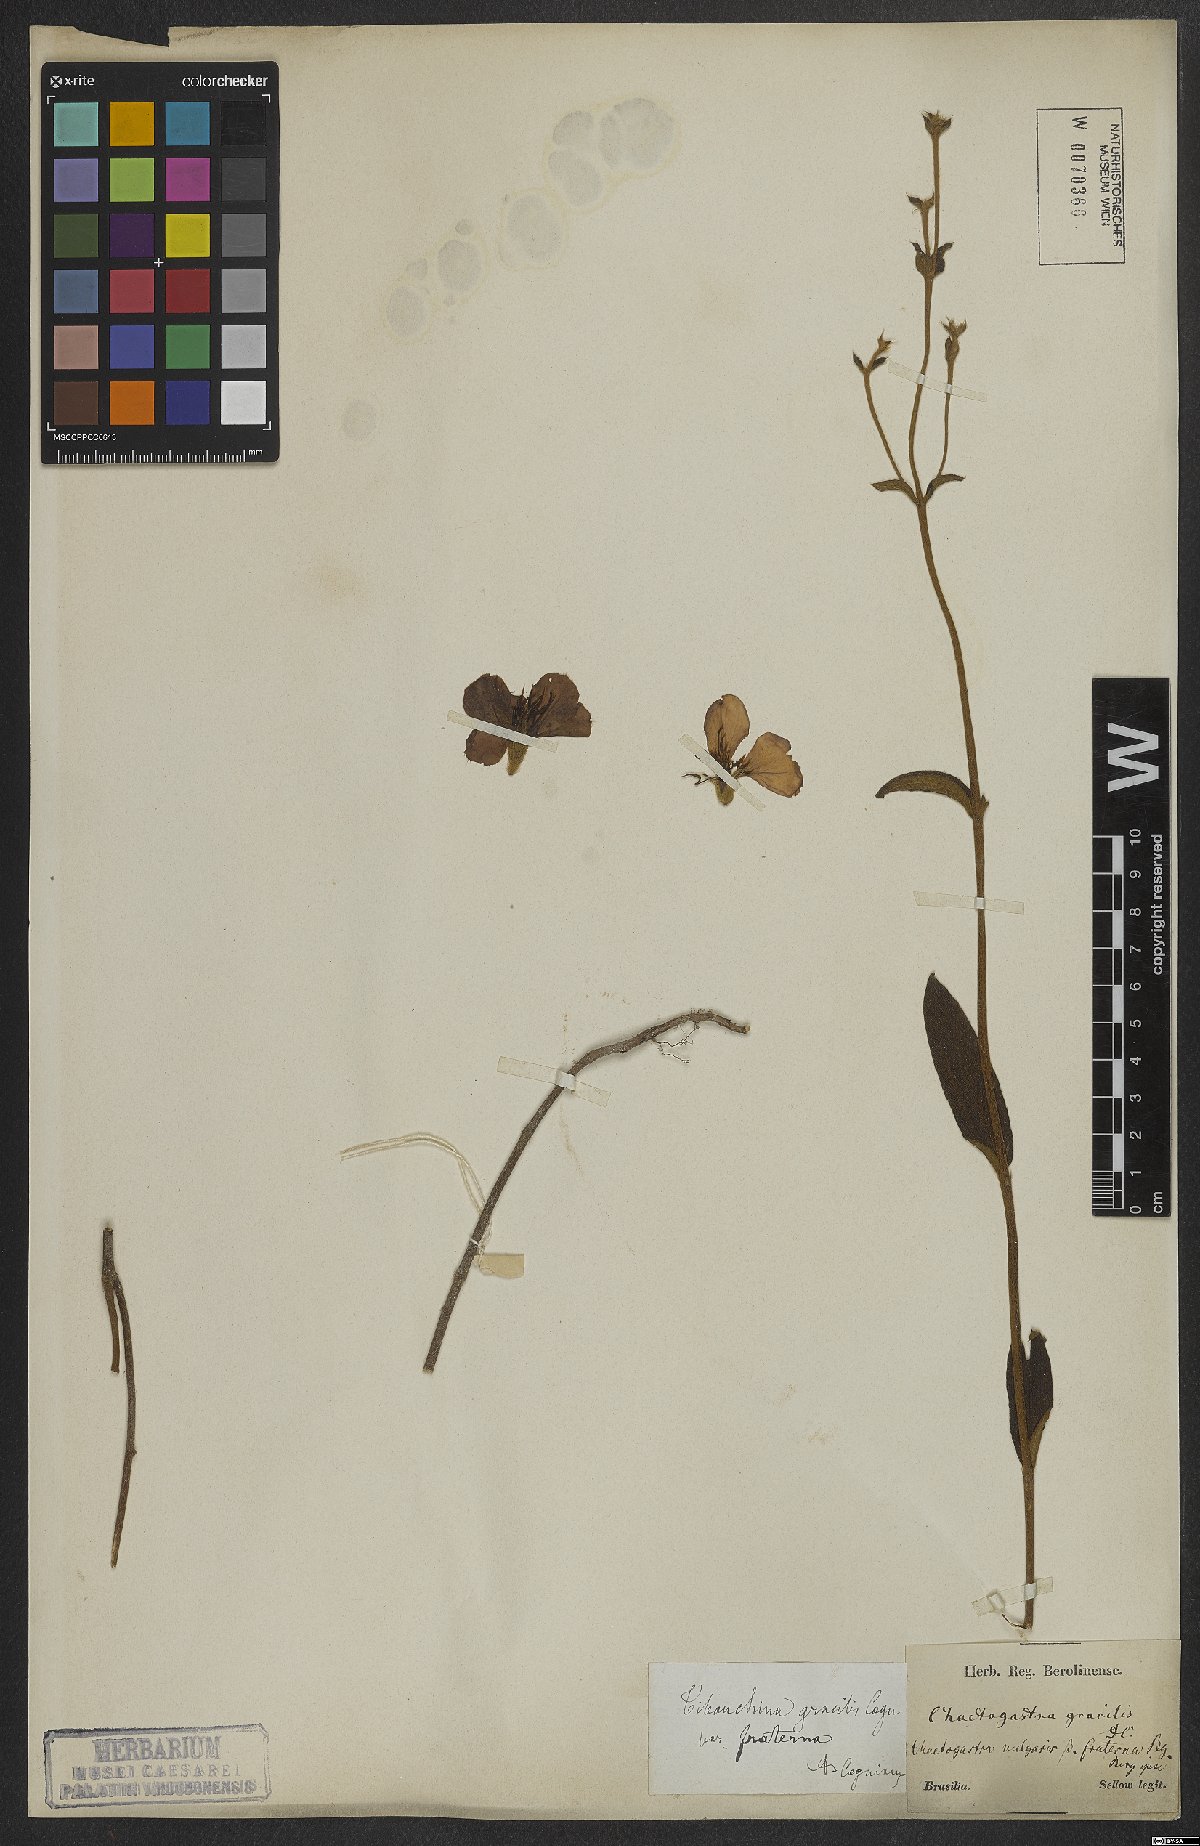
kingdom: Plantae
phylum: Tracheophyta
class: Magnoliopsida
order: Myrtales
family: Melastomataceae
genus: Chaetogastra
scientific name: Chaetogastra gracilis
